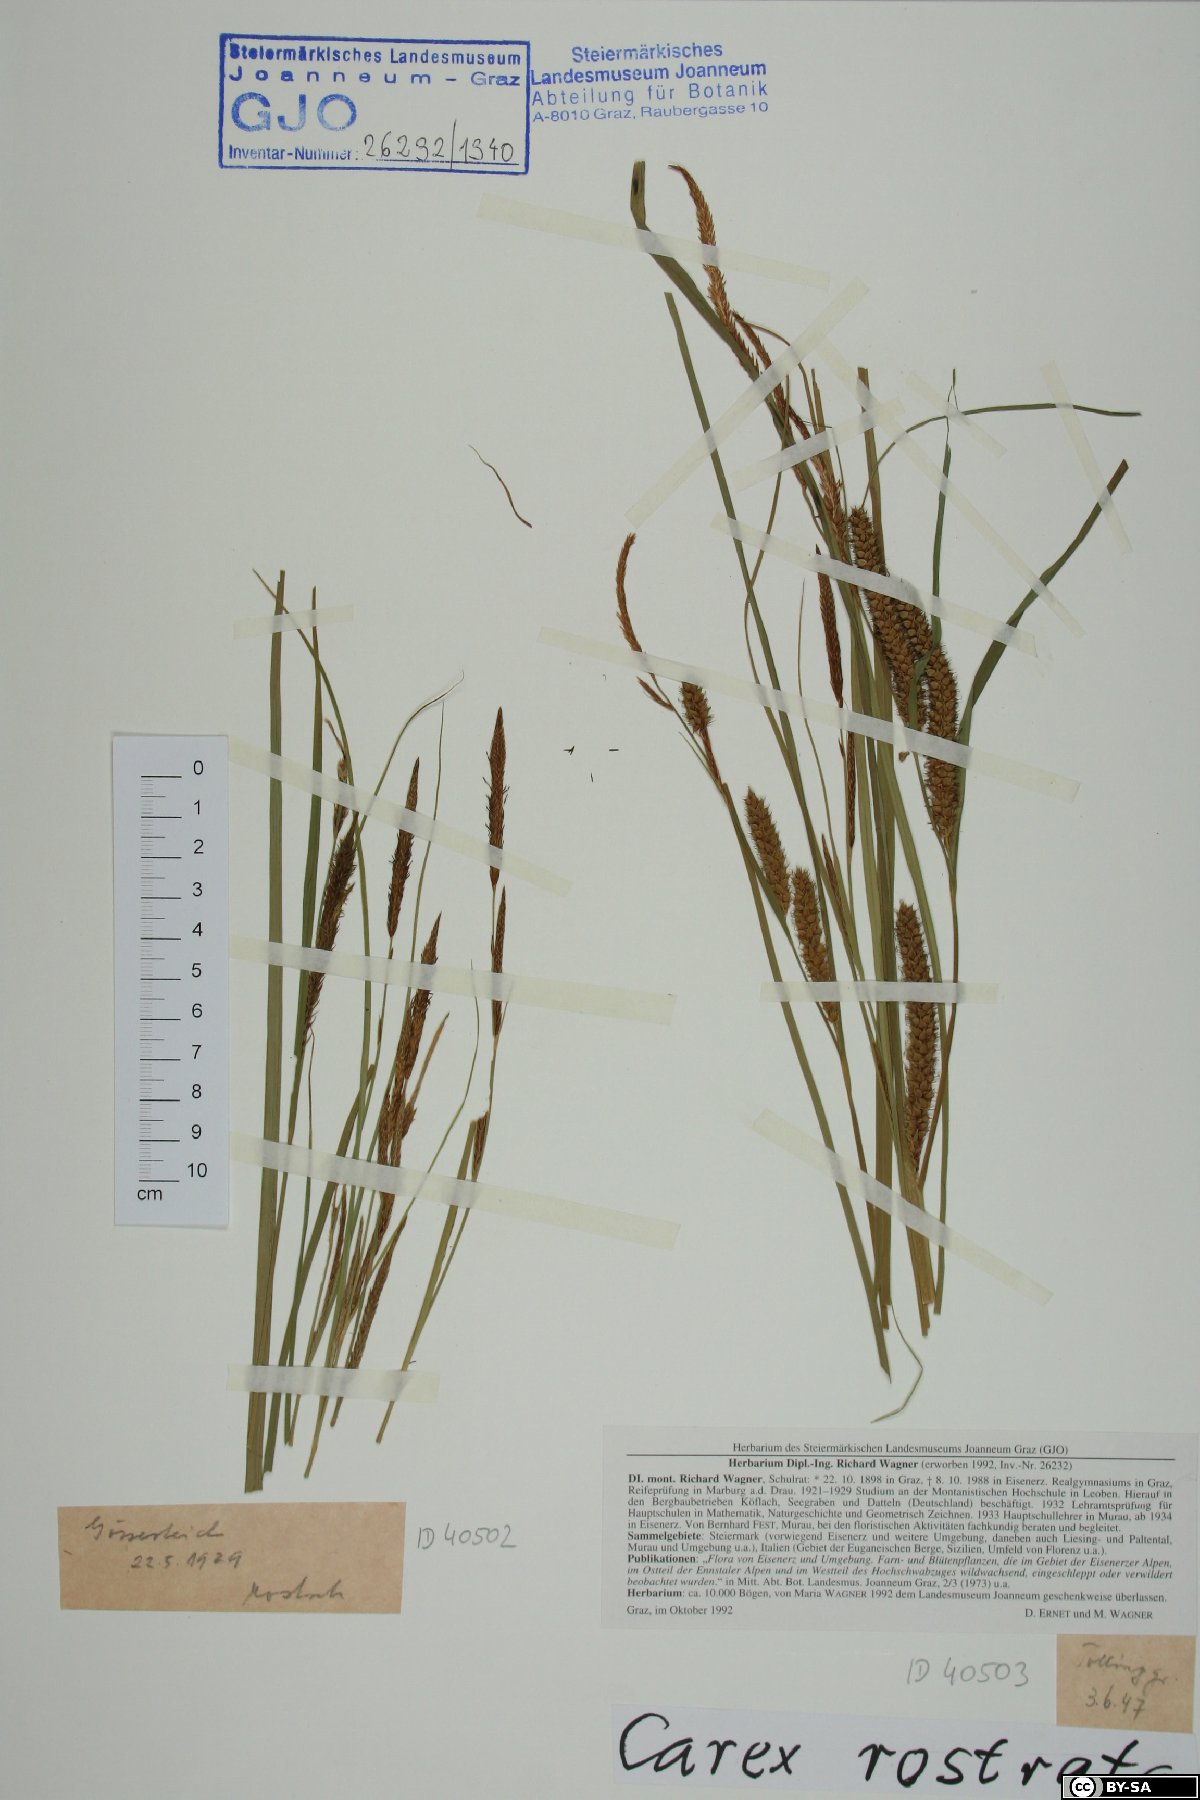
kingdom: Plantae
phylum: Tracheophyta
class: Liliopsida
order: Poales
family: Cyperaceae
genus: Carex
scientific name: Carex rostrata
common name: Bottle sedge
